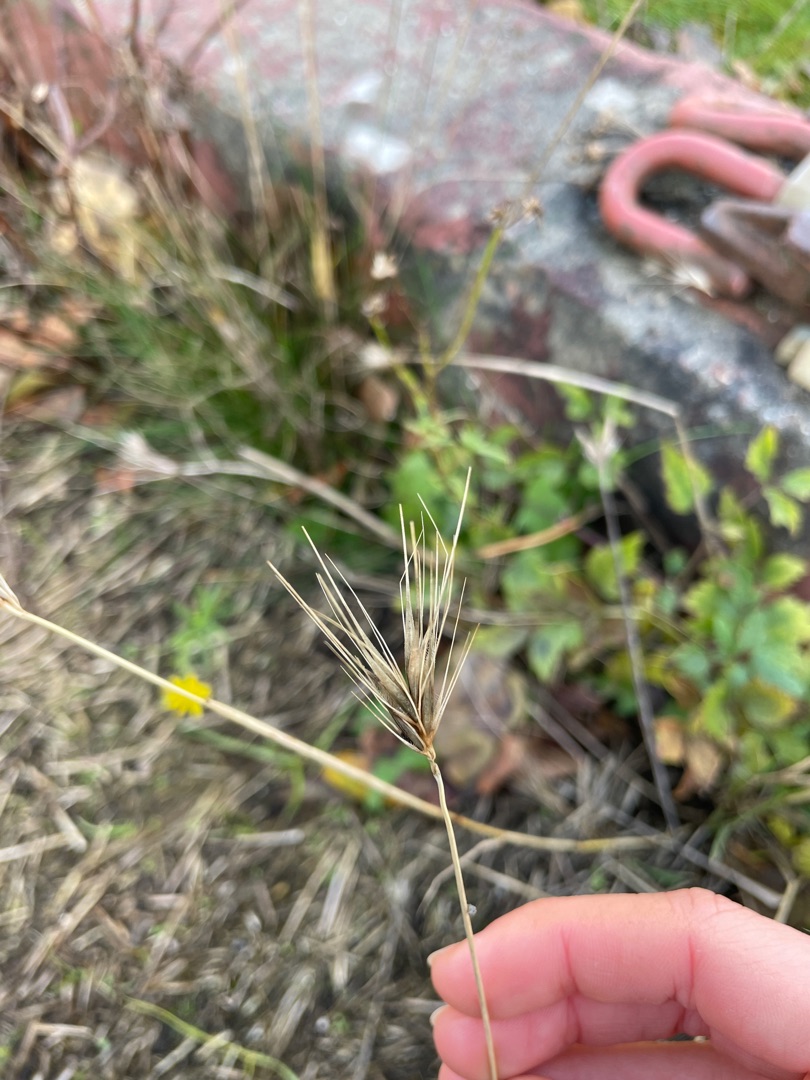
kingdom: Plantae
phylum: Tracheophyta
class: Liliopsida
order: Poales
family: Poaceae
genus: Hordeum
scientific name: Hordeum murinum
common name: Gold byg
